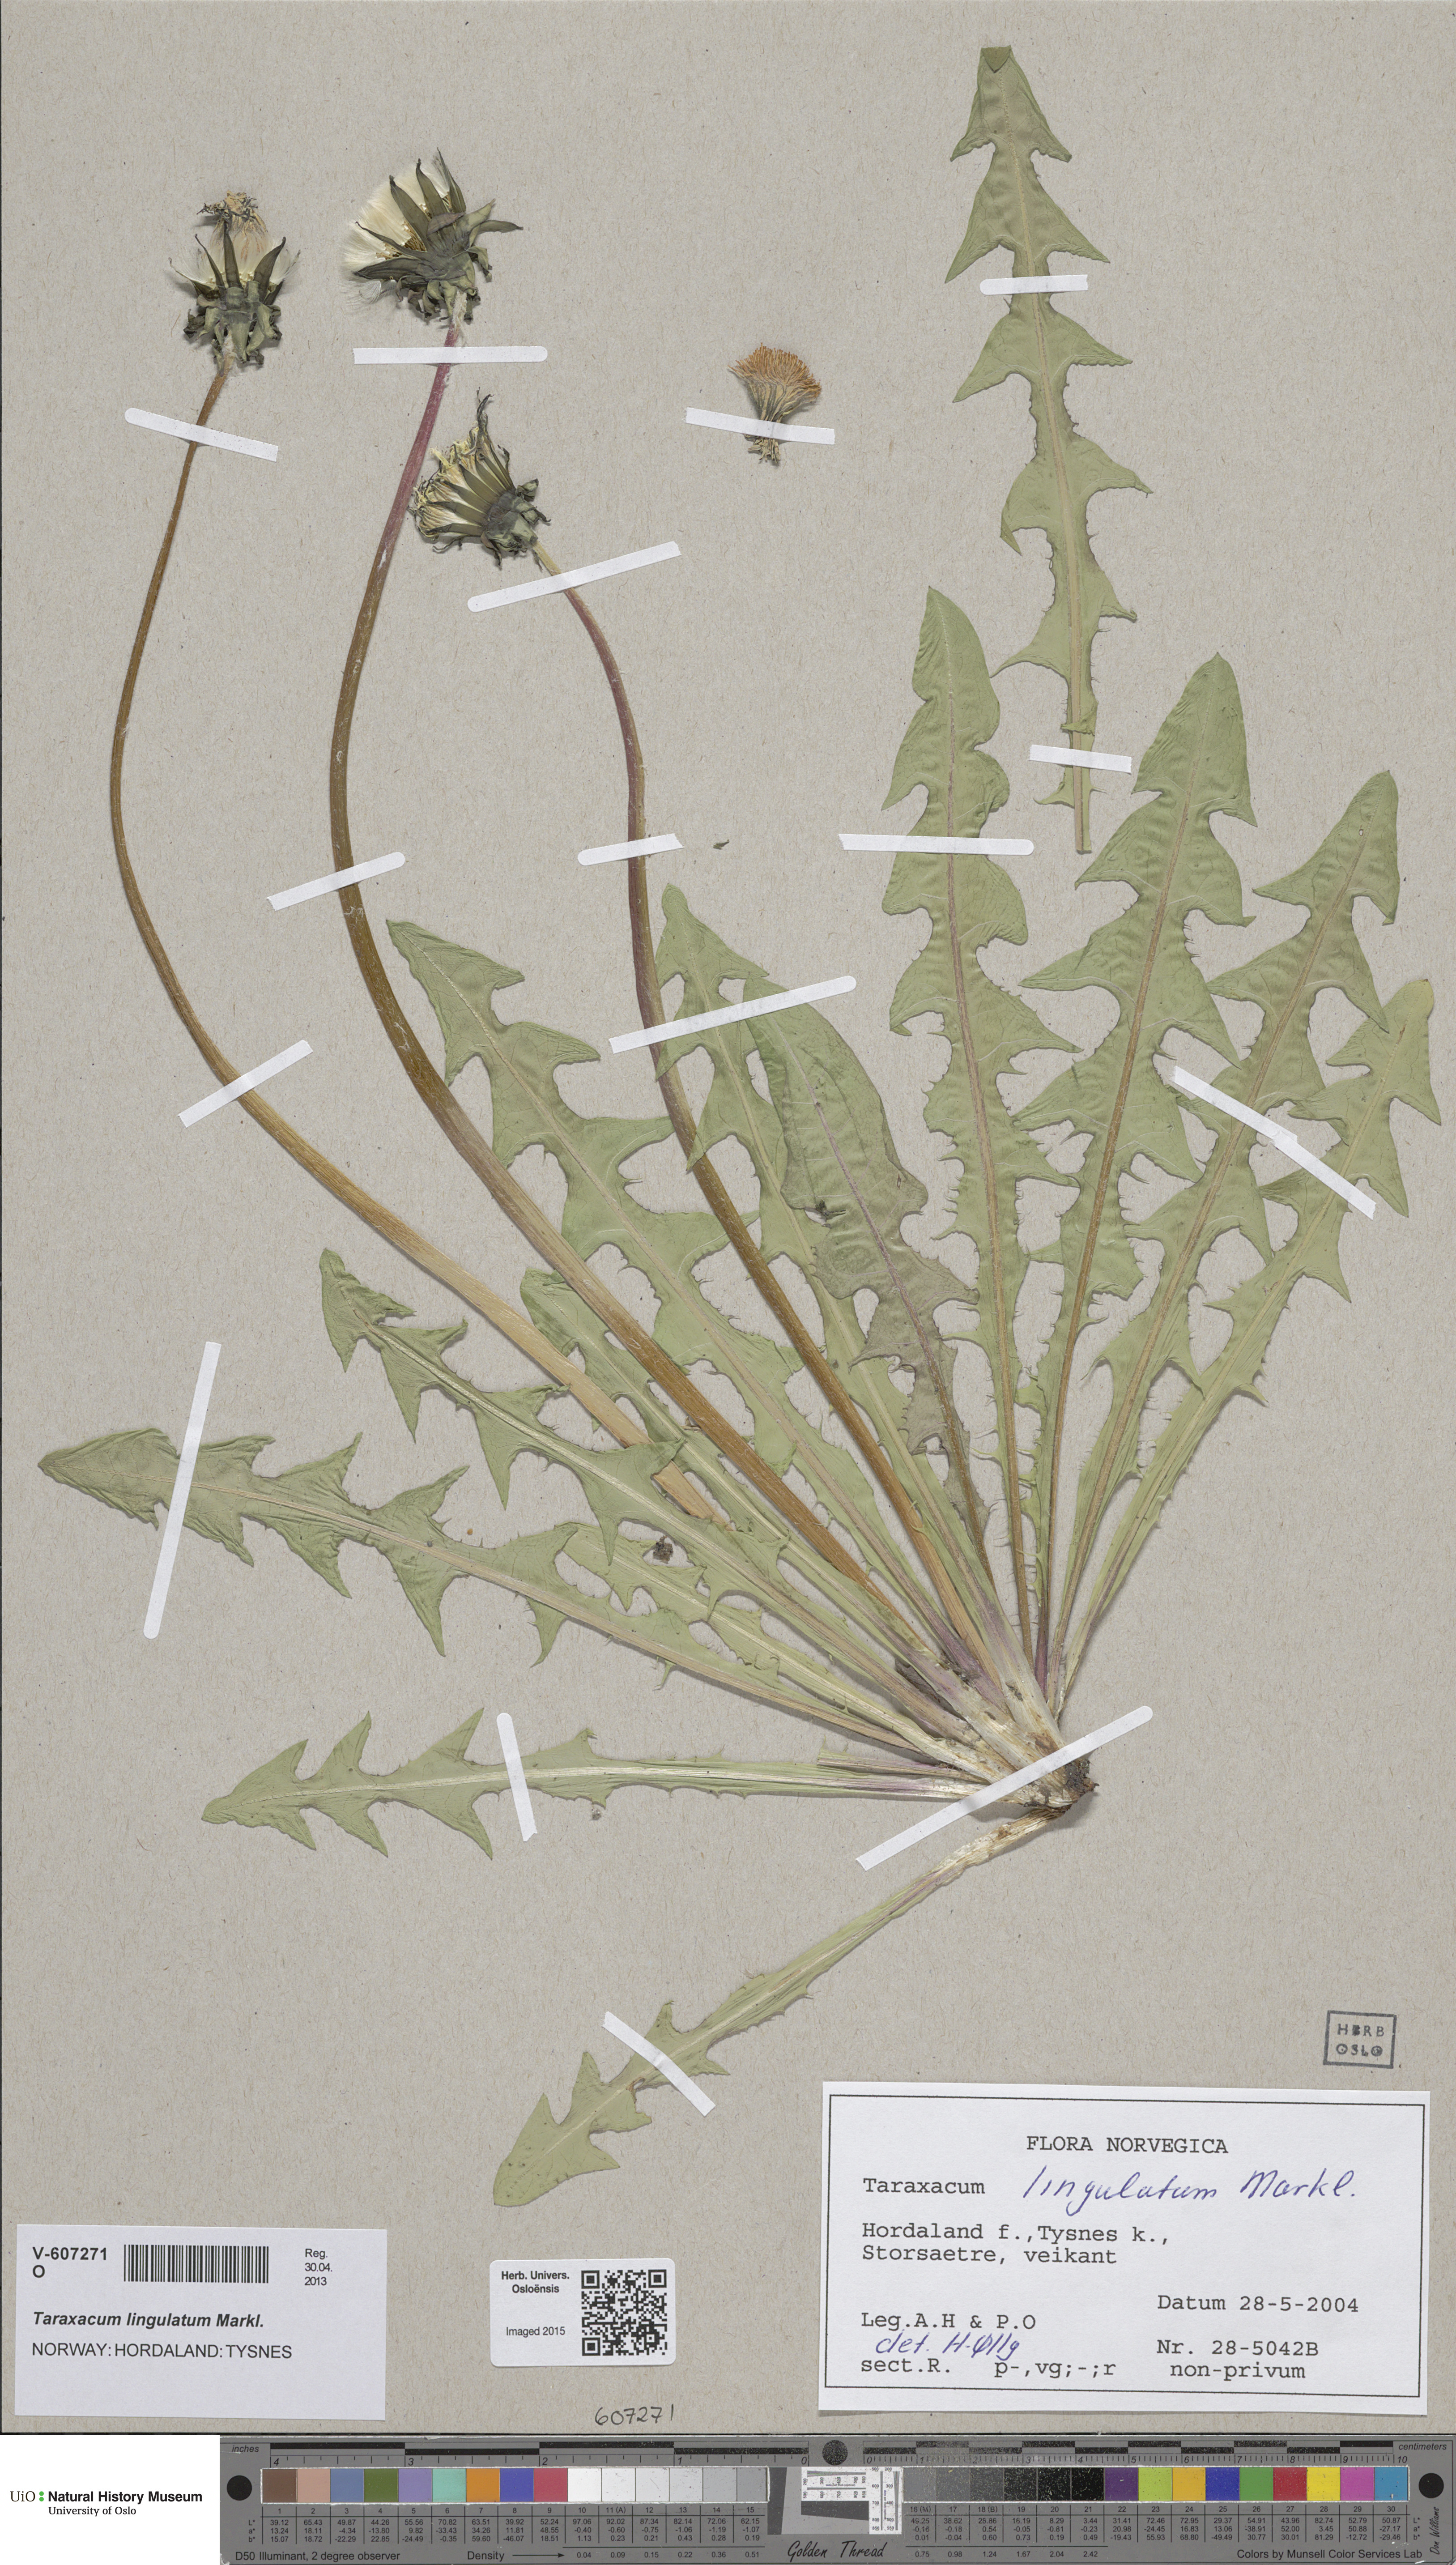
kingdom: Plantae
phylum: Tracheophyta
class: Magnoliopsida
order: Asterales
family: Asteraceae
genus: Taraxacum
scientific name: Taraxacum lingulatum
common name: Long-bracted dandelion
